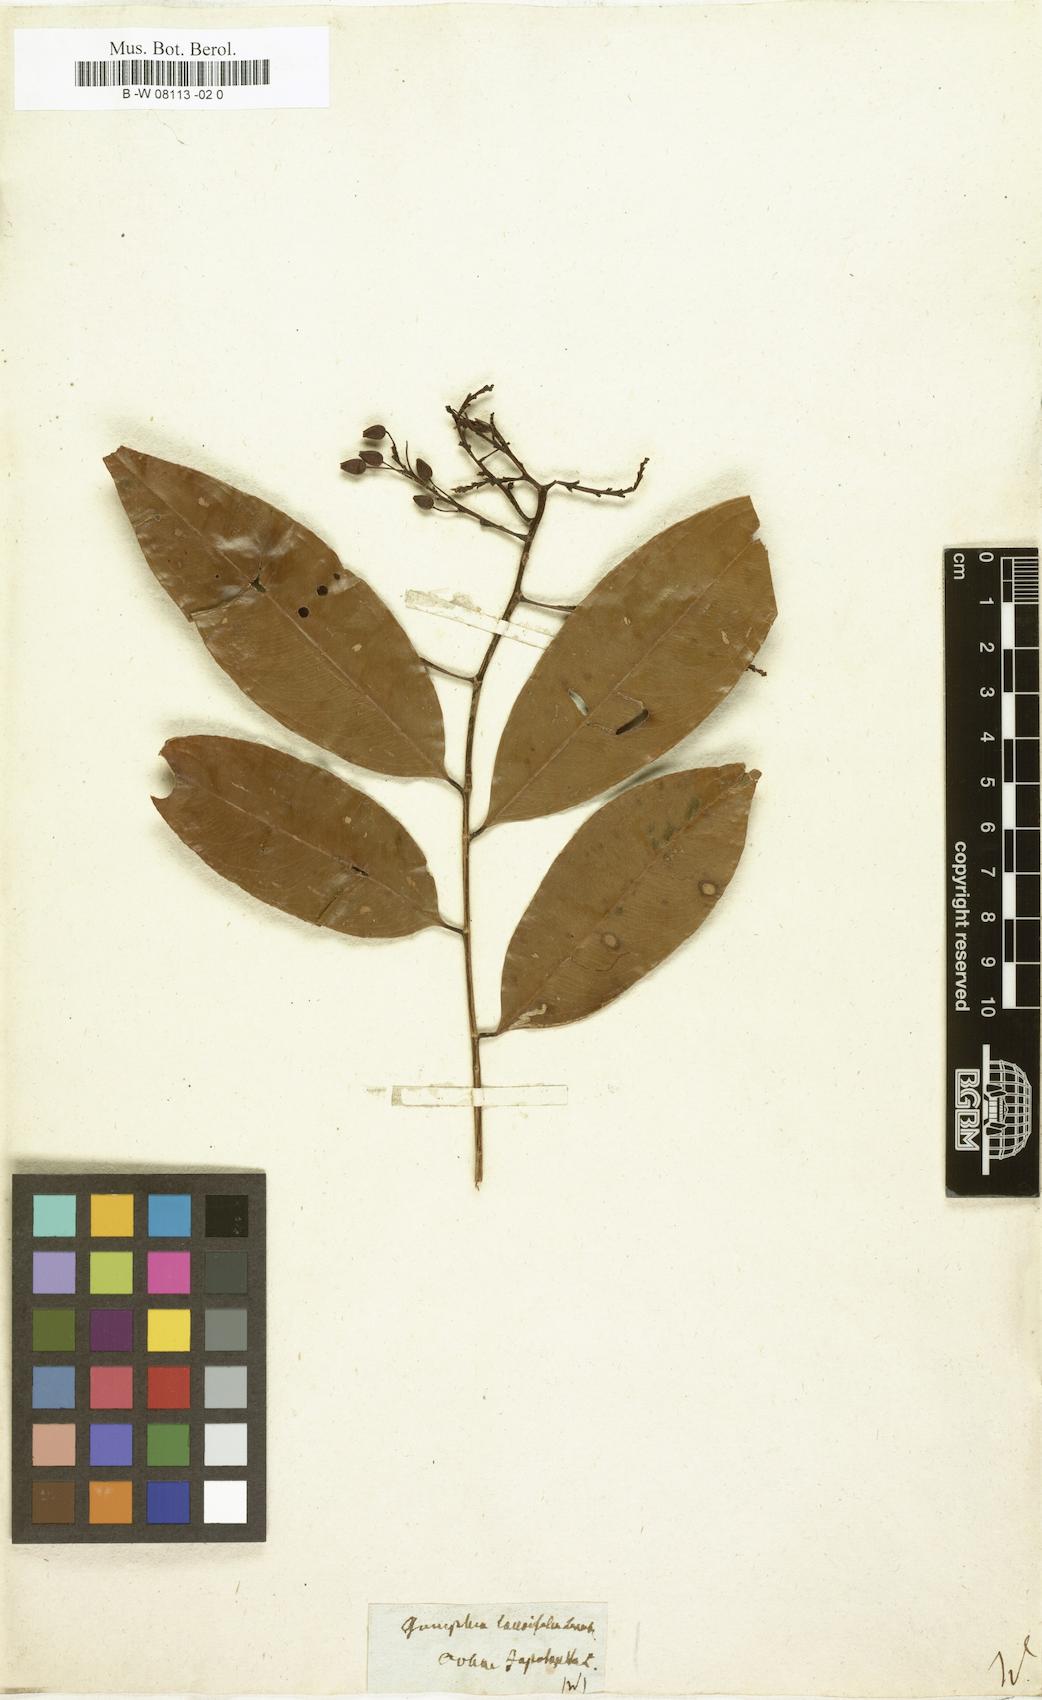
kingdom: Plantae
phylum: Tracheophyta
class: Magnoliopsida
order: Malpighiales
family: Ochnaceae
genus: Ochna
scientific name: Ochna jabotapita
